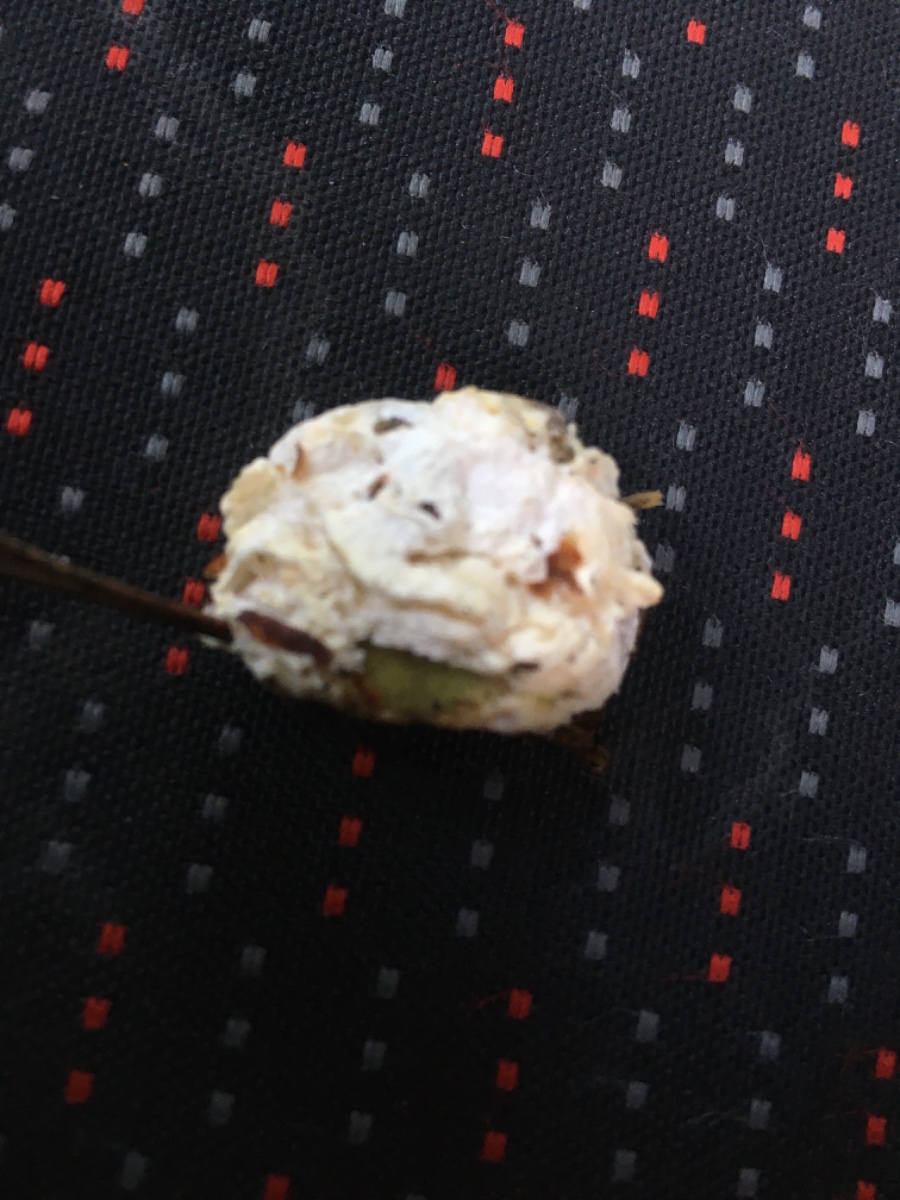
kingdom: Fungi
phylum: Basidiomycota
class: Agaricomycetes
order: Polyporales
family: Incrustoporiaceae
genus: Tyromyces
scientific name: Tyromyces lacteus
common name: mælkehvid kødporesvamp
